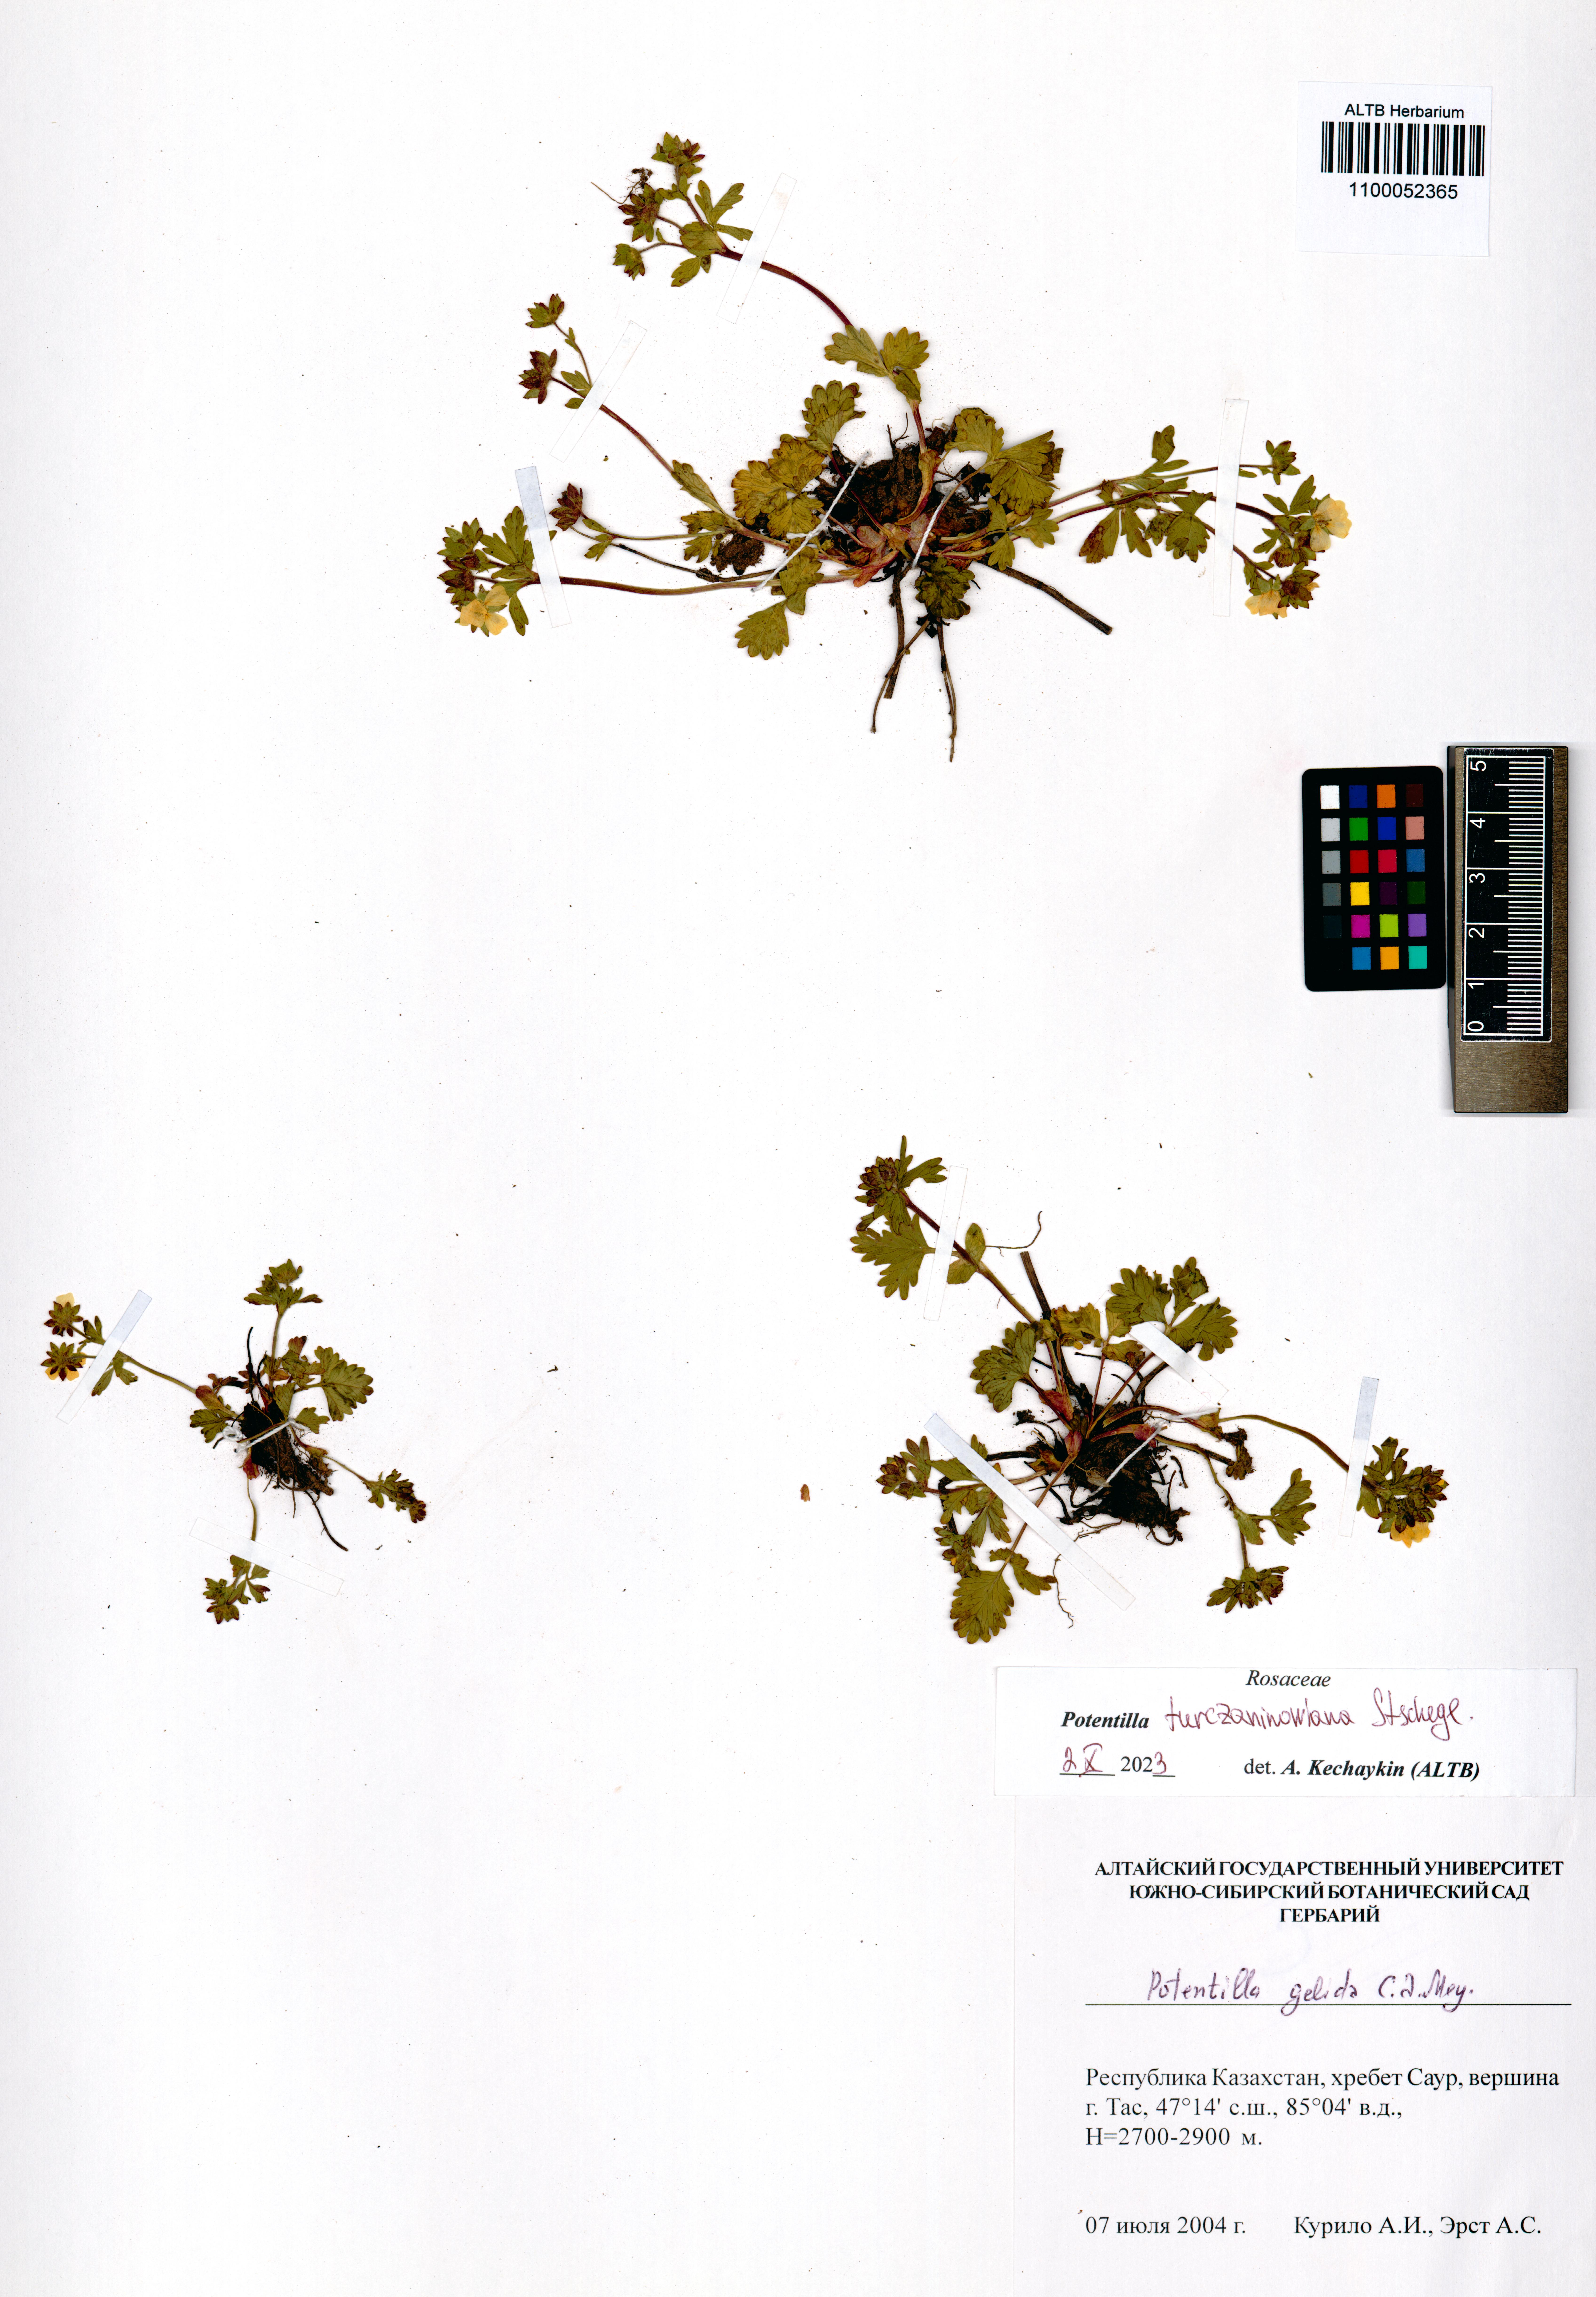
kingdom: Plantae
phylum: Tracheophyta
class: Magnoliopsida
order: Rosales
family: Rosaceae
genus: Potentilla
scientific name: Potentilla turczaninowiana
